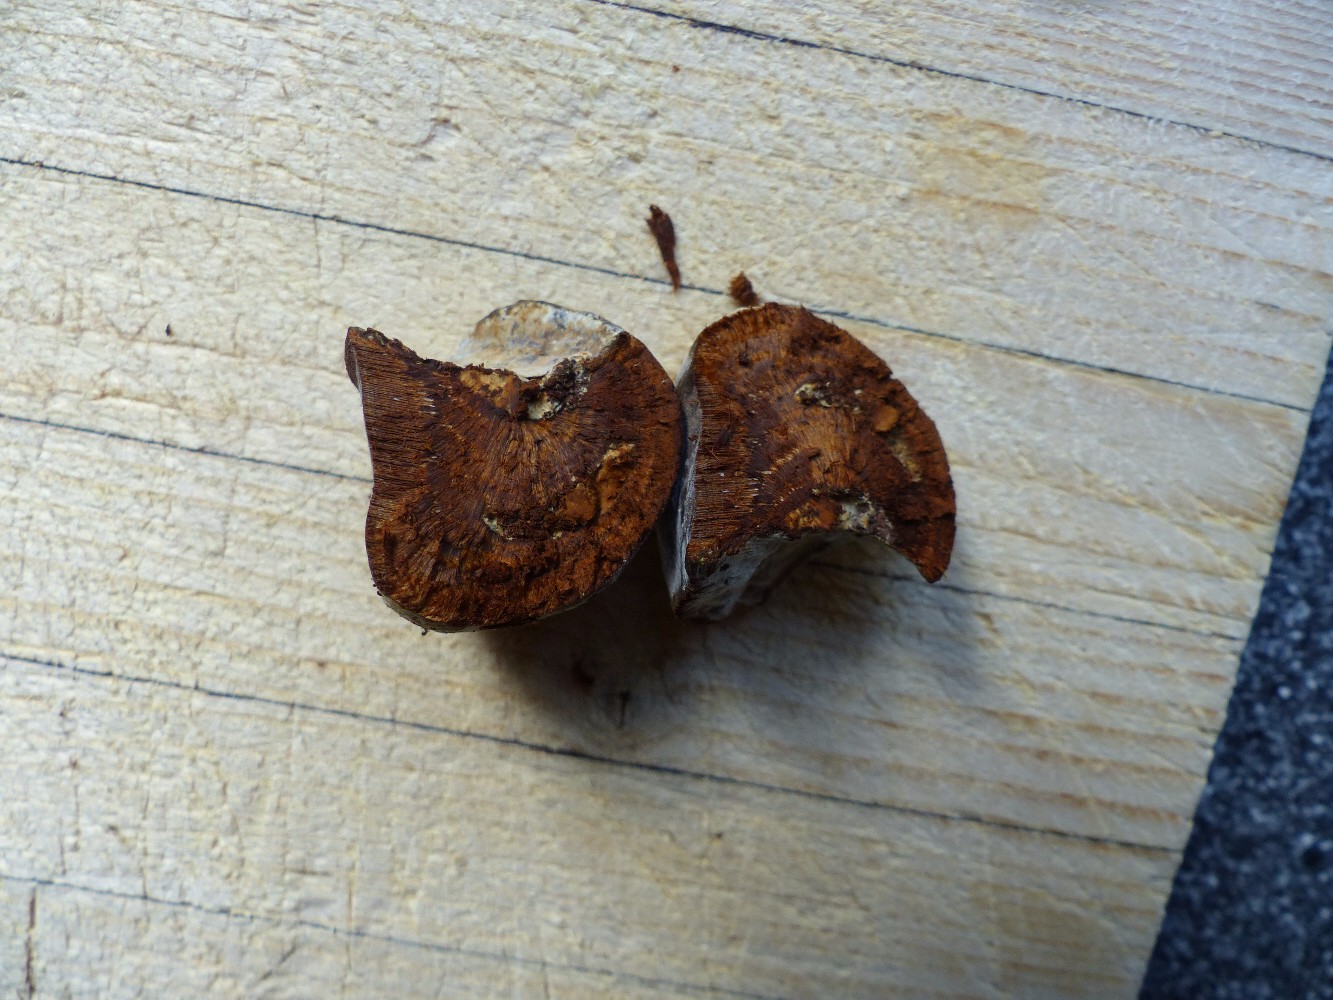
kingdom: Fungi
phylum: Basidiomycota
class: Agaricomycetes
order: Hymenochaetales
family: Hymenochaetaceae
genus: Fomitiporia
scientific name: Fomitiporia hippophaeicola
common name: havtorn-ildporesvamp
